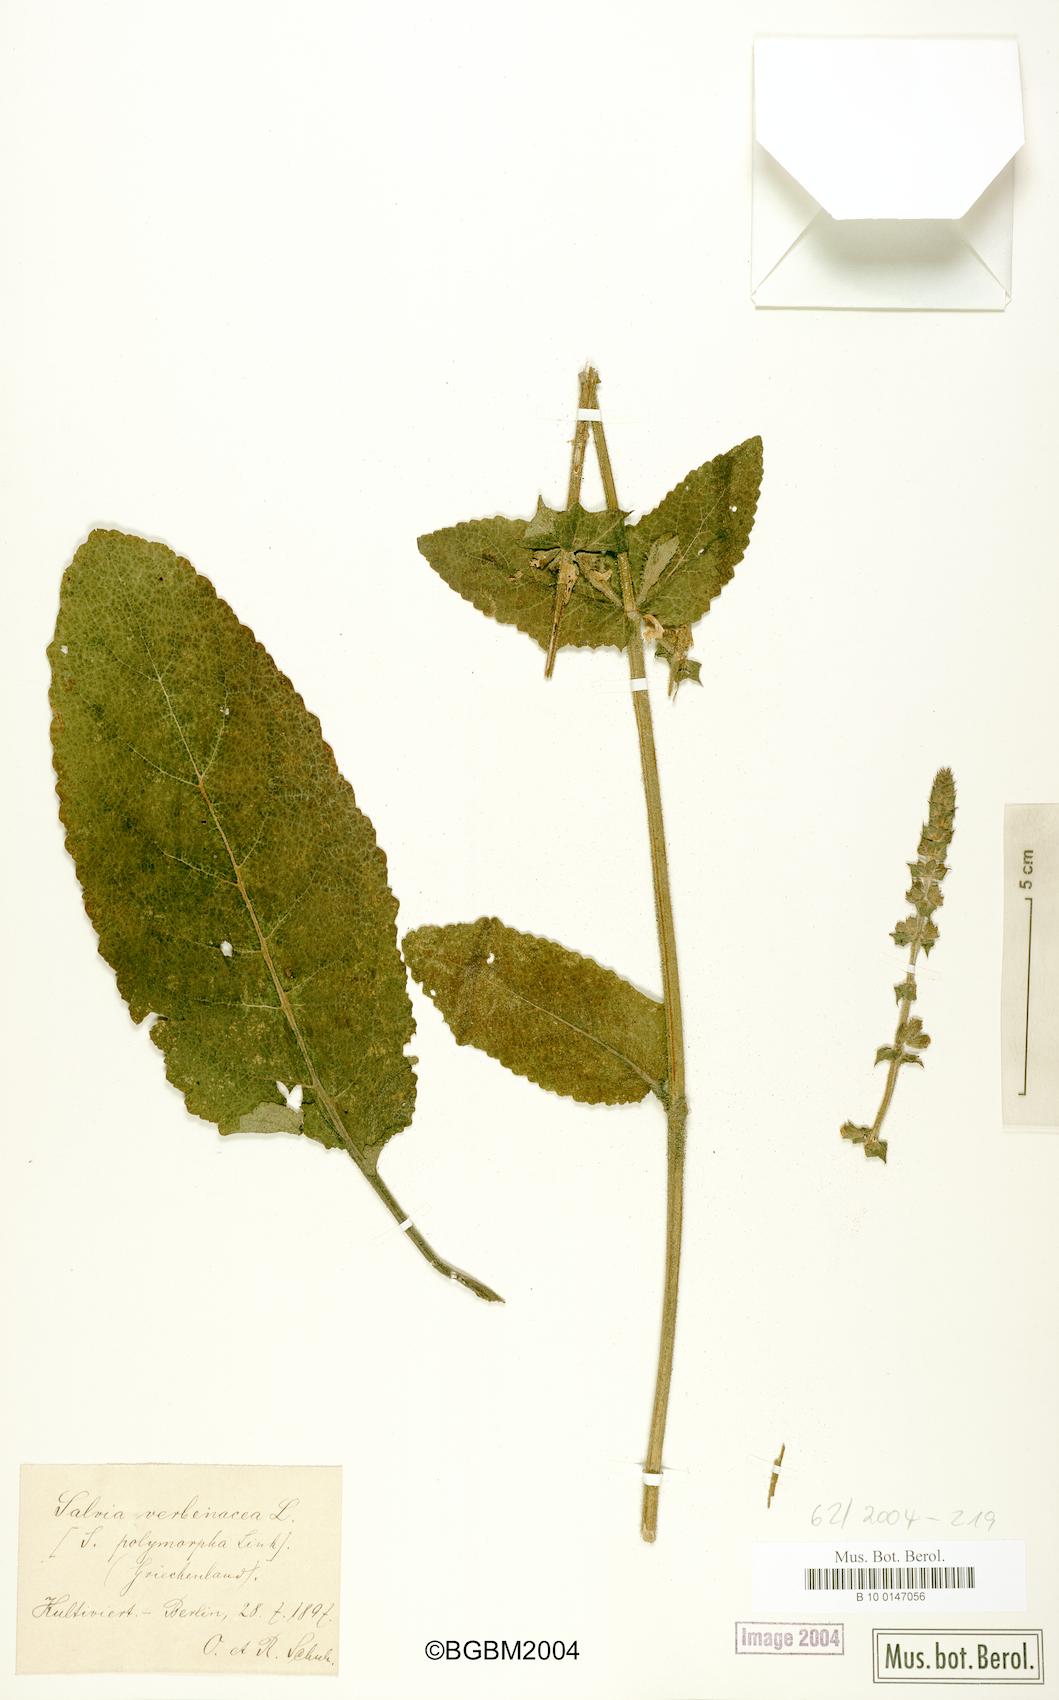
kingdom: Plantae
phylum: Tracheophyta
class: Magnoliopsida
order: Lamiales
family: Lamiaceae
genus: Salvia
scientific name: Salvia verbenaca
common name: Wild clary
